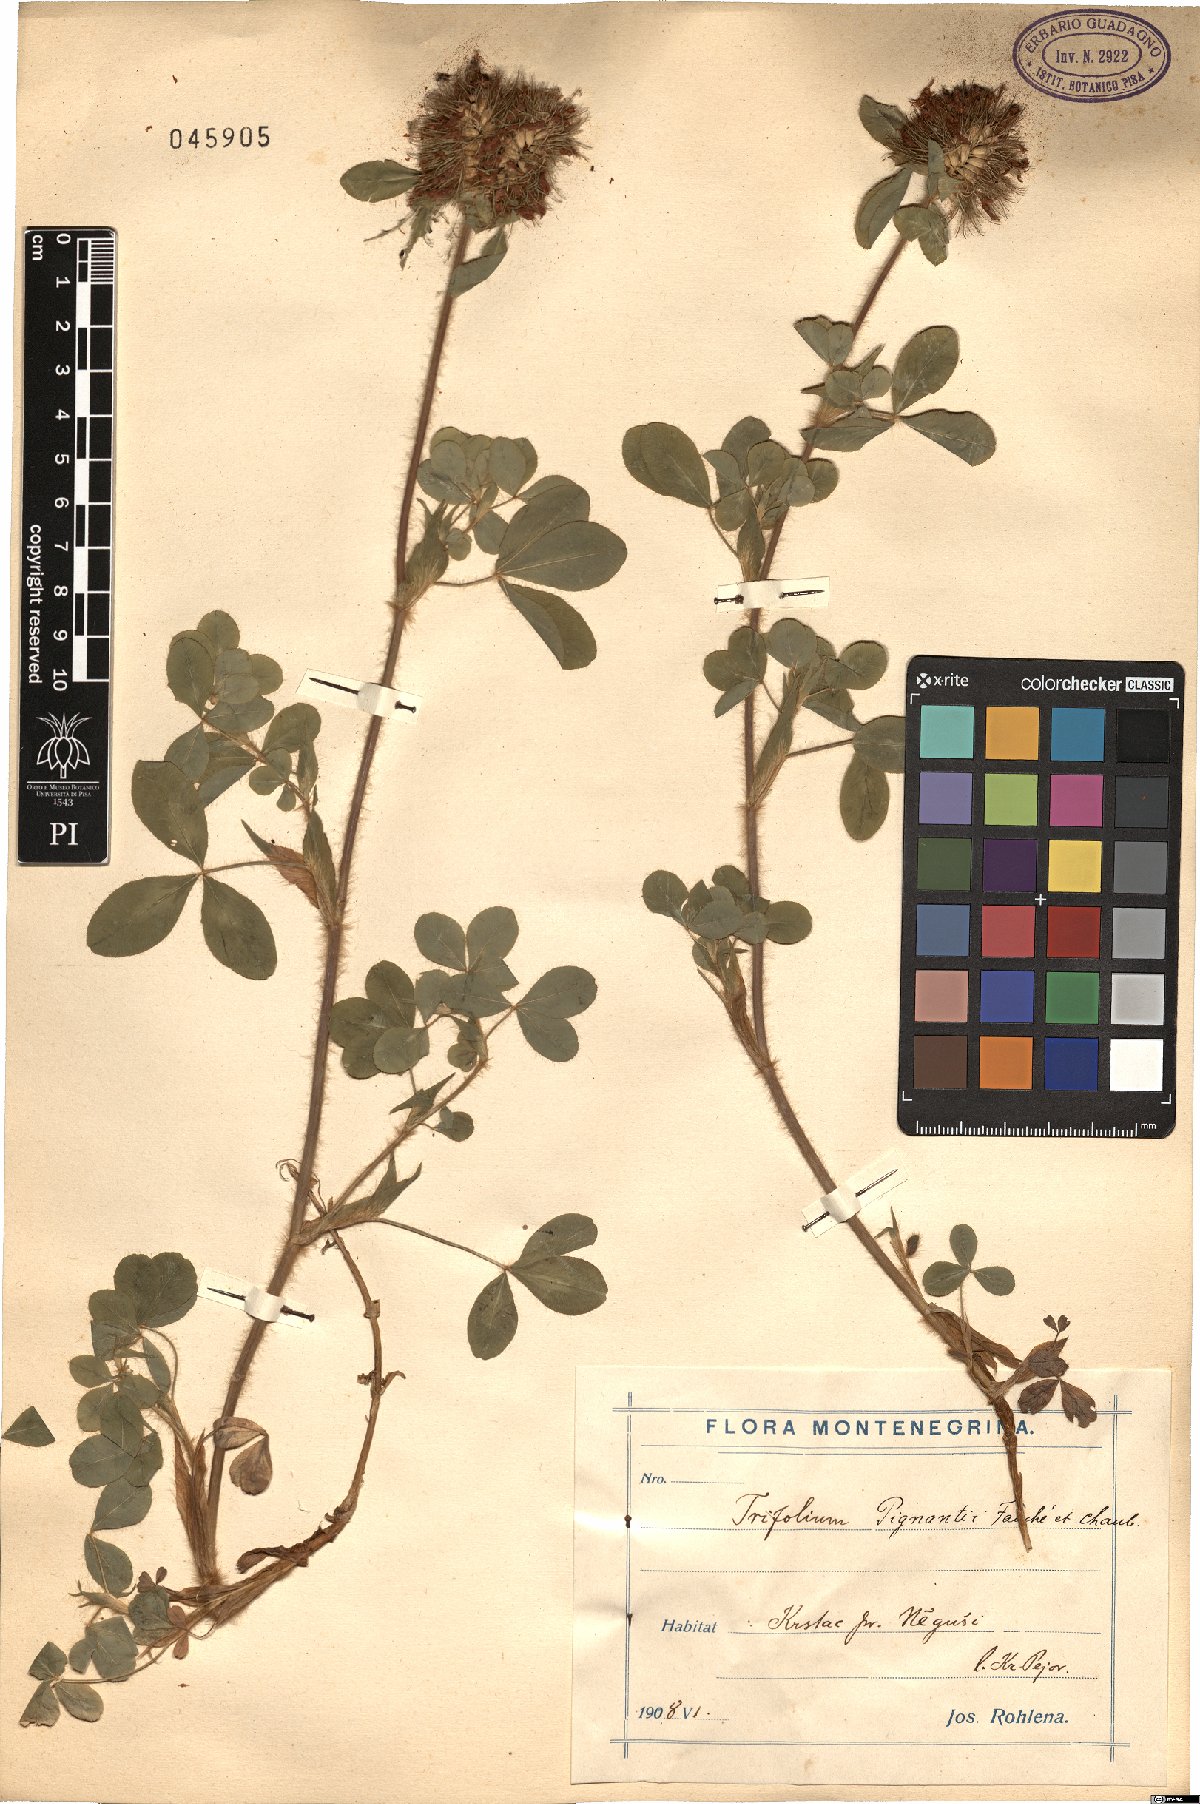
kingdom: Plantae
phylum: Tracheophyta
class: Magnoliopsida
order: Fabales
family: Fabaceae
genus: Trifolium
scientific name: Trifolium pignantii
